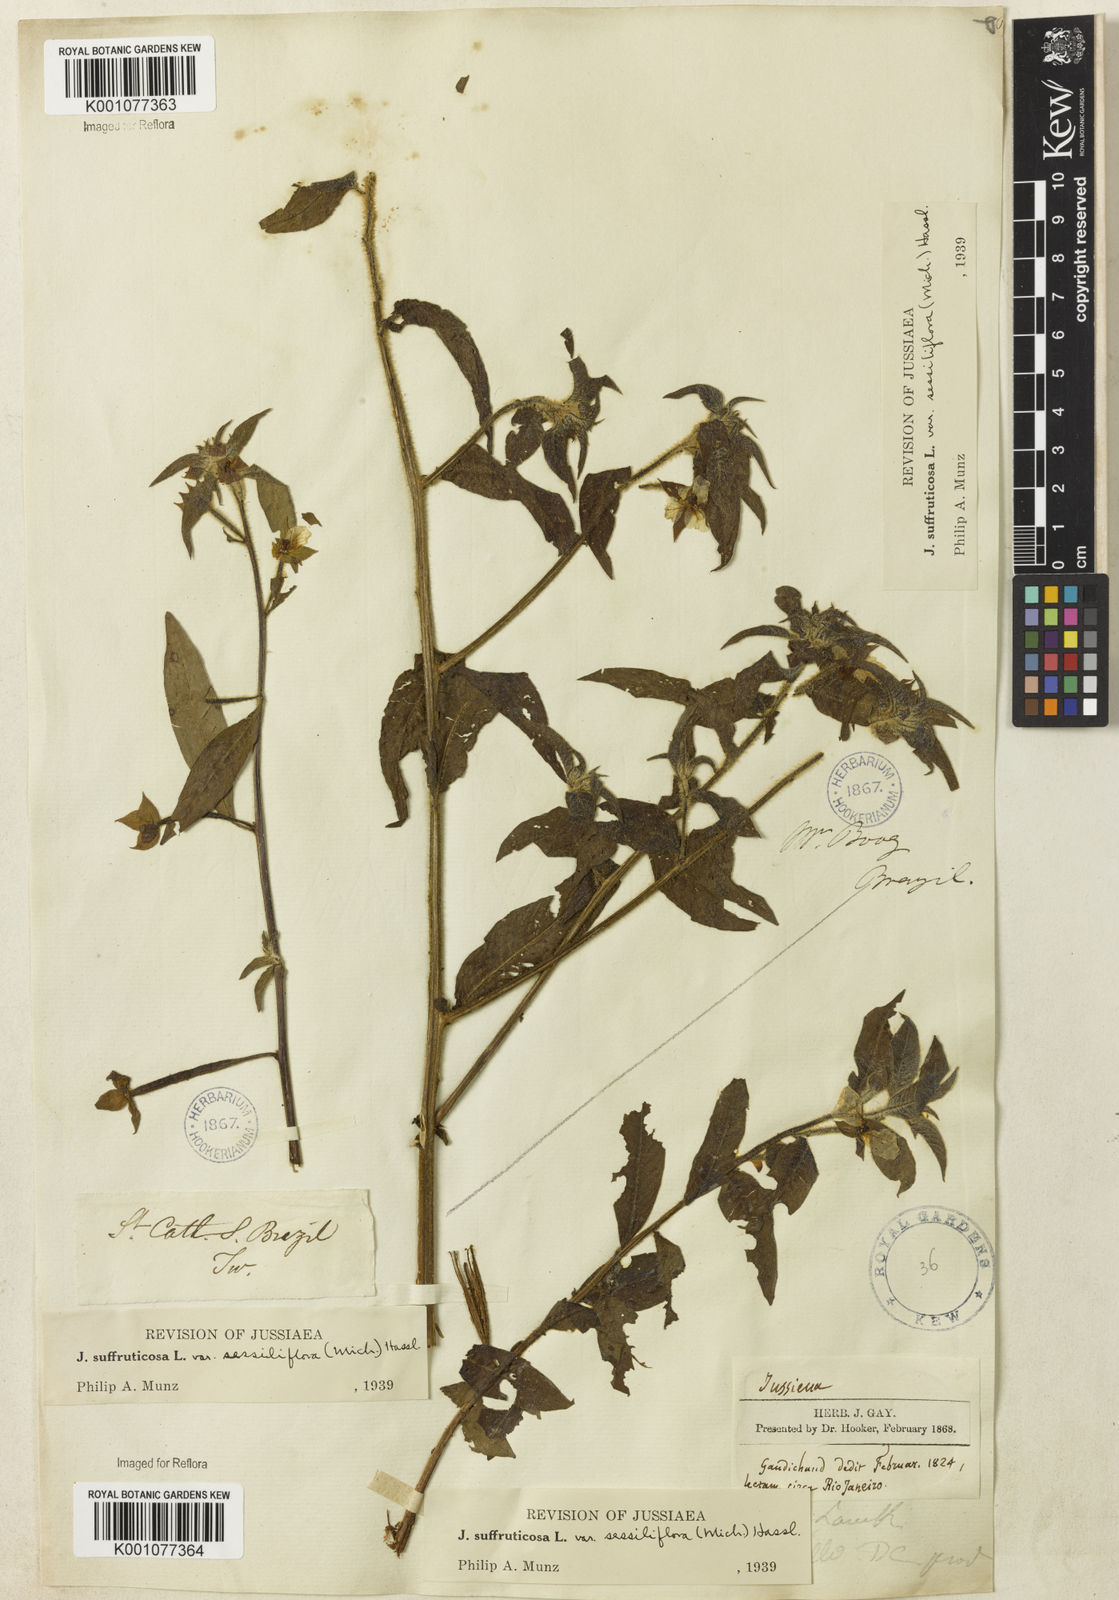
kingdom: Plantae
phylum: Tracheophyta
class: Magnoliopsida
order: Myrtales
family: Onagraceae
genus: Ludwigia
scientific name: Ludwigia octovalvis
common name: Water-primrose
